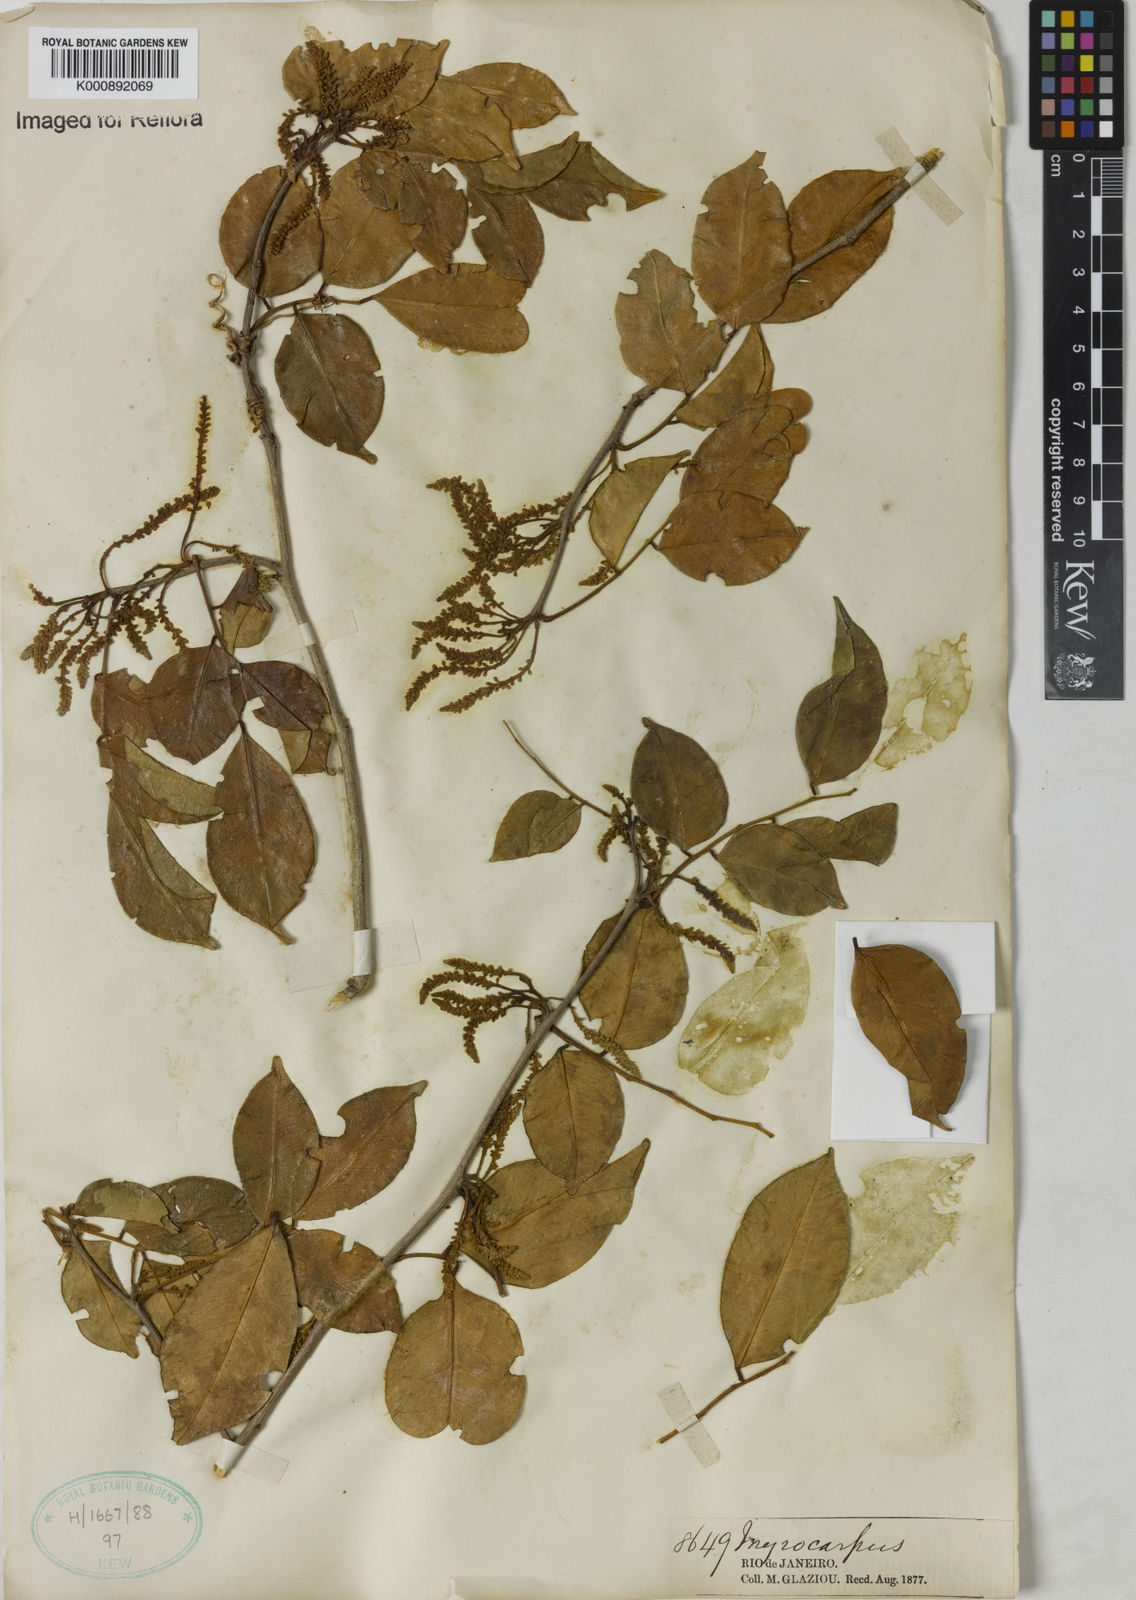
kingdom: Plantae
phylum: Tracheophyta
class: Magnoliopsida
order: Fabales
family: Fabaceae
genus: Myrocarpus
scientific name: Myrocarpus
